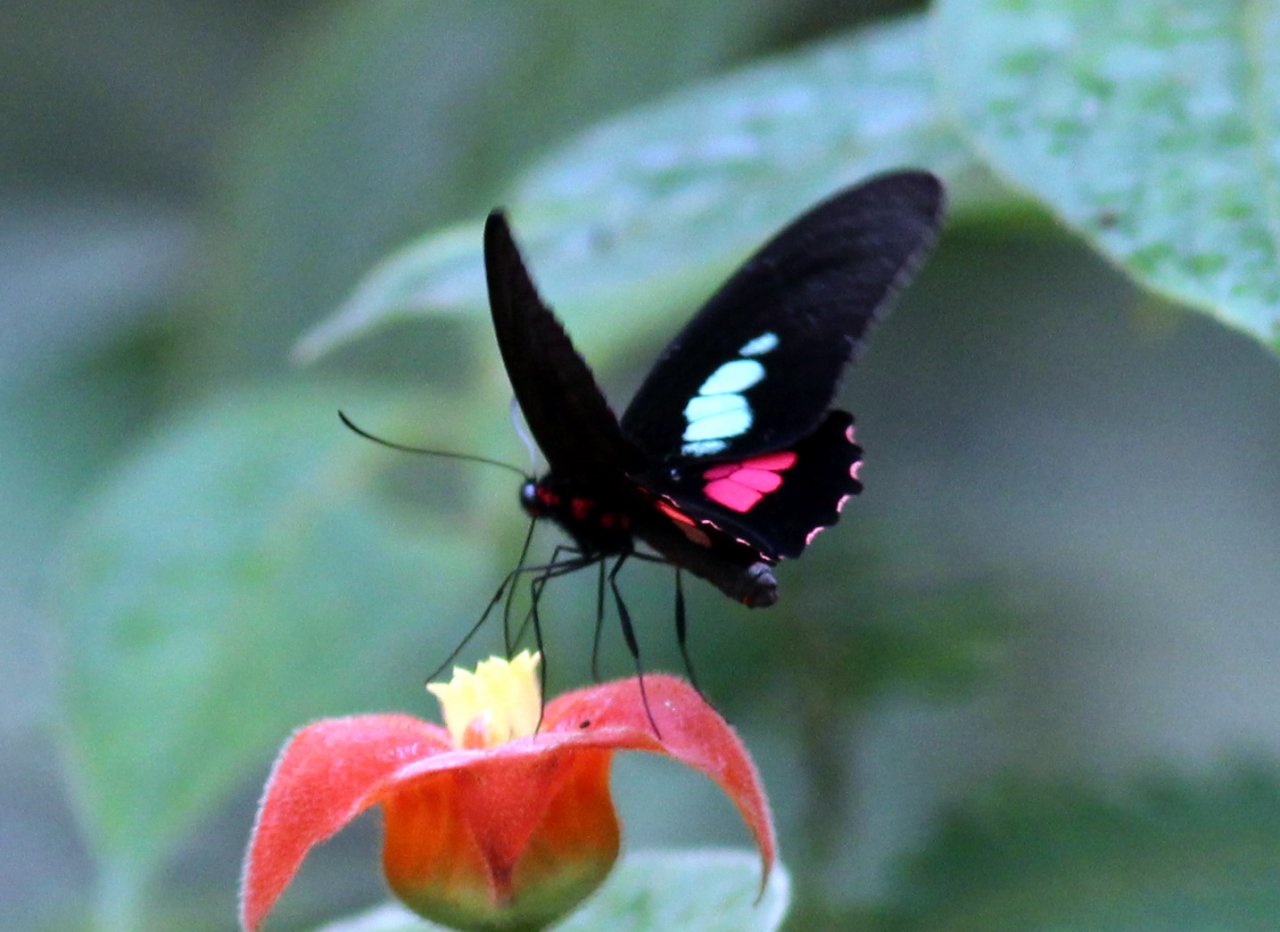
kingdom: Animalia
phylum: Arthropoda
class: Insecta
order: Lepidoptera
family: Papilionidae
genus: Parides
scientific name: Parides
